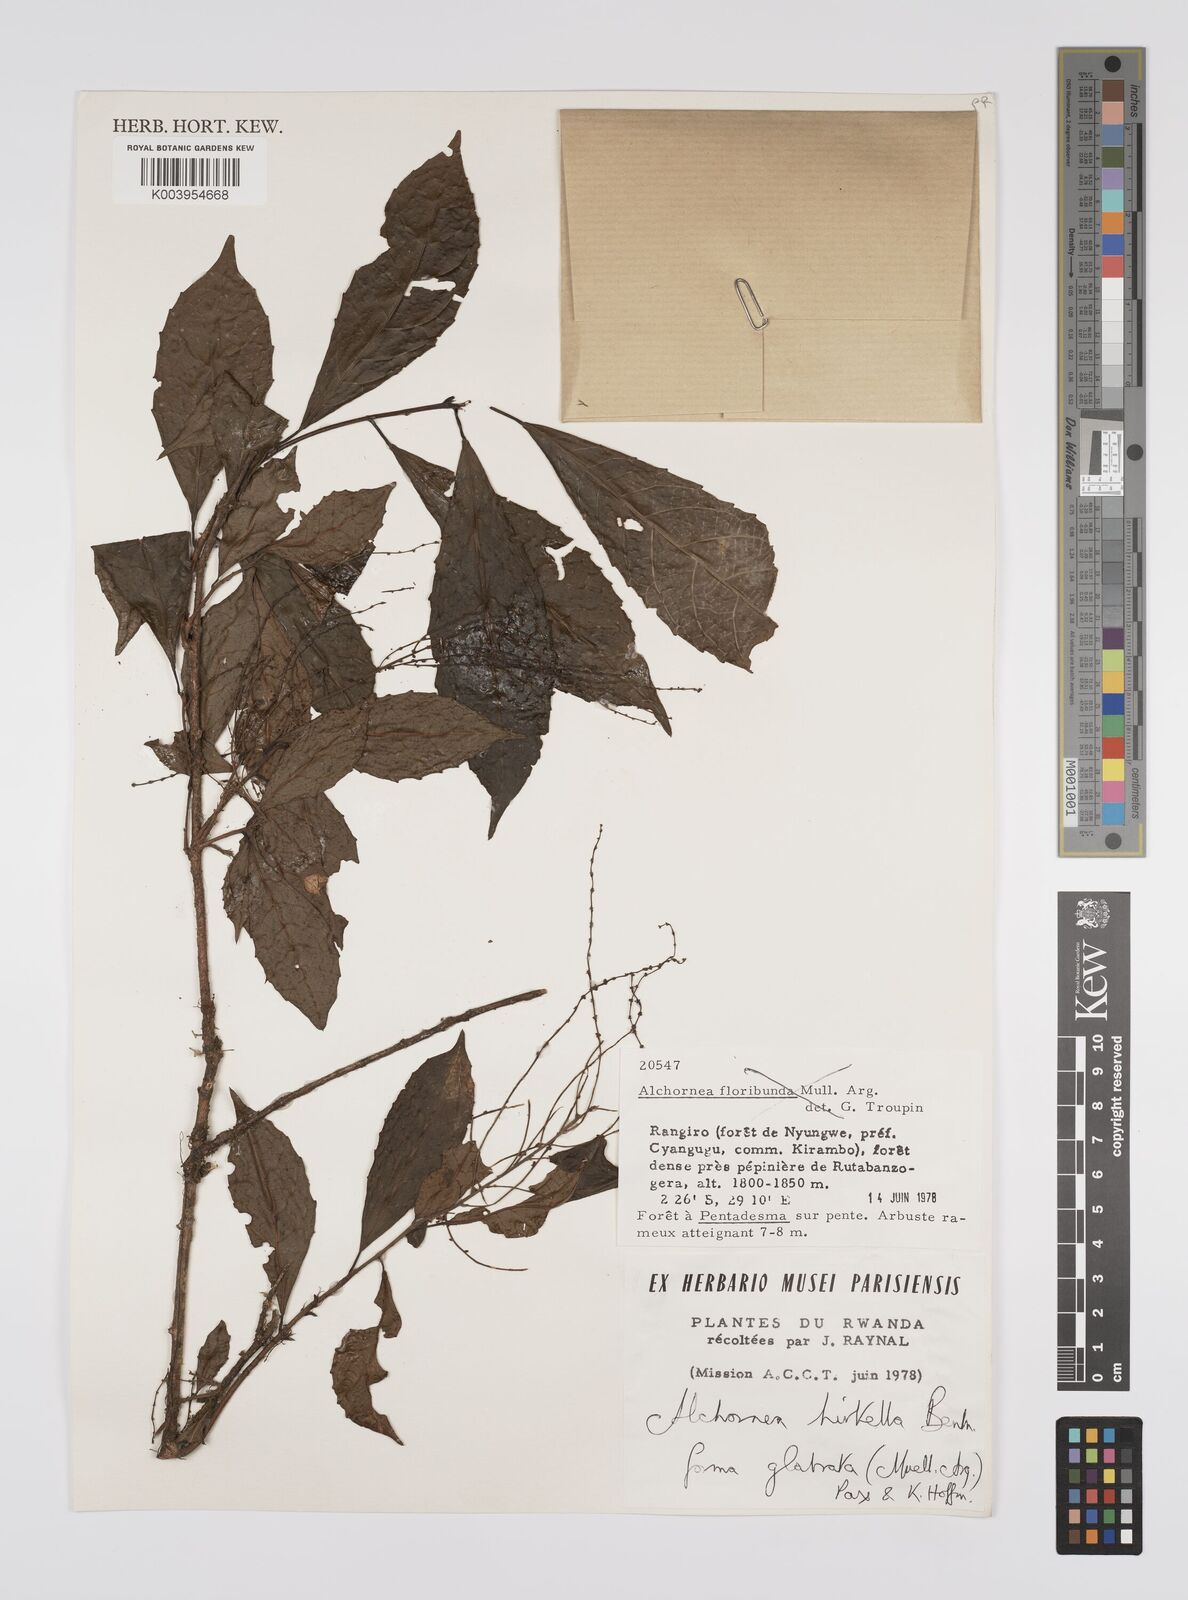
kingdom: Plantae
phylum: Tracheophyta
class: Magnoliopsida
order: Malpighiales
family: Euphorbiaceae
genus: Alchornea
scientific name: Alchornea hirtella
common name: Forest bead-string
